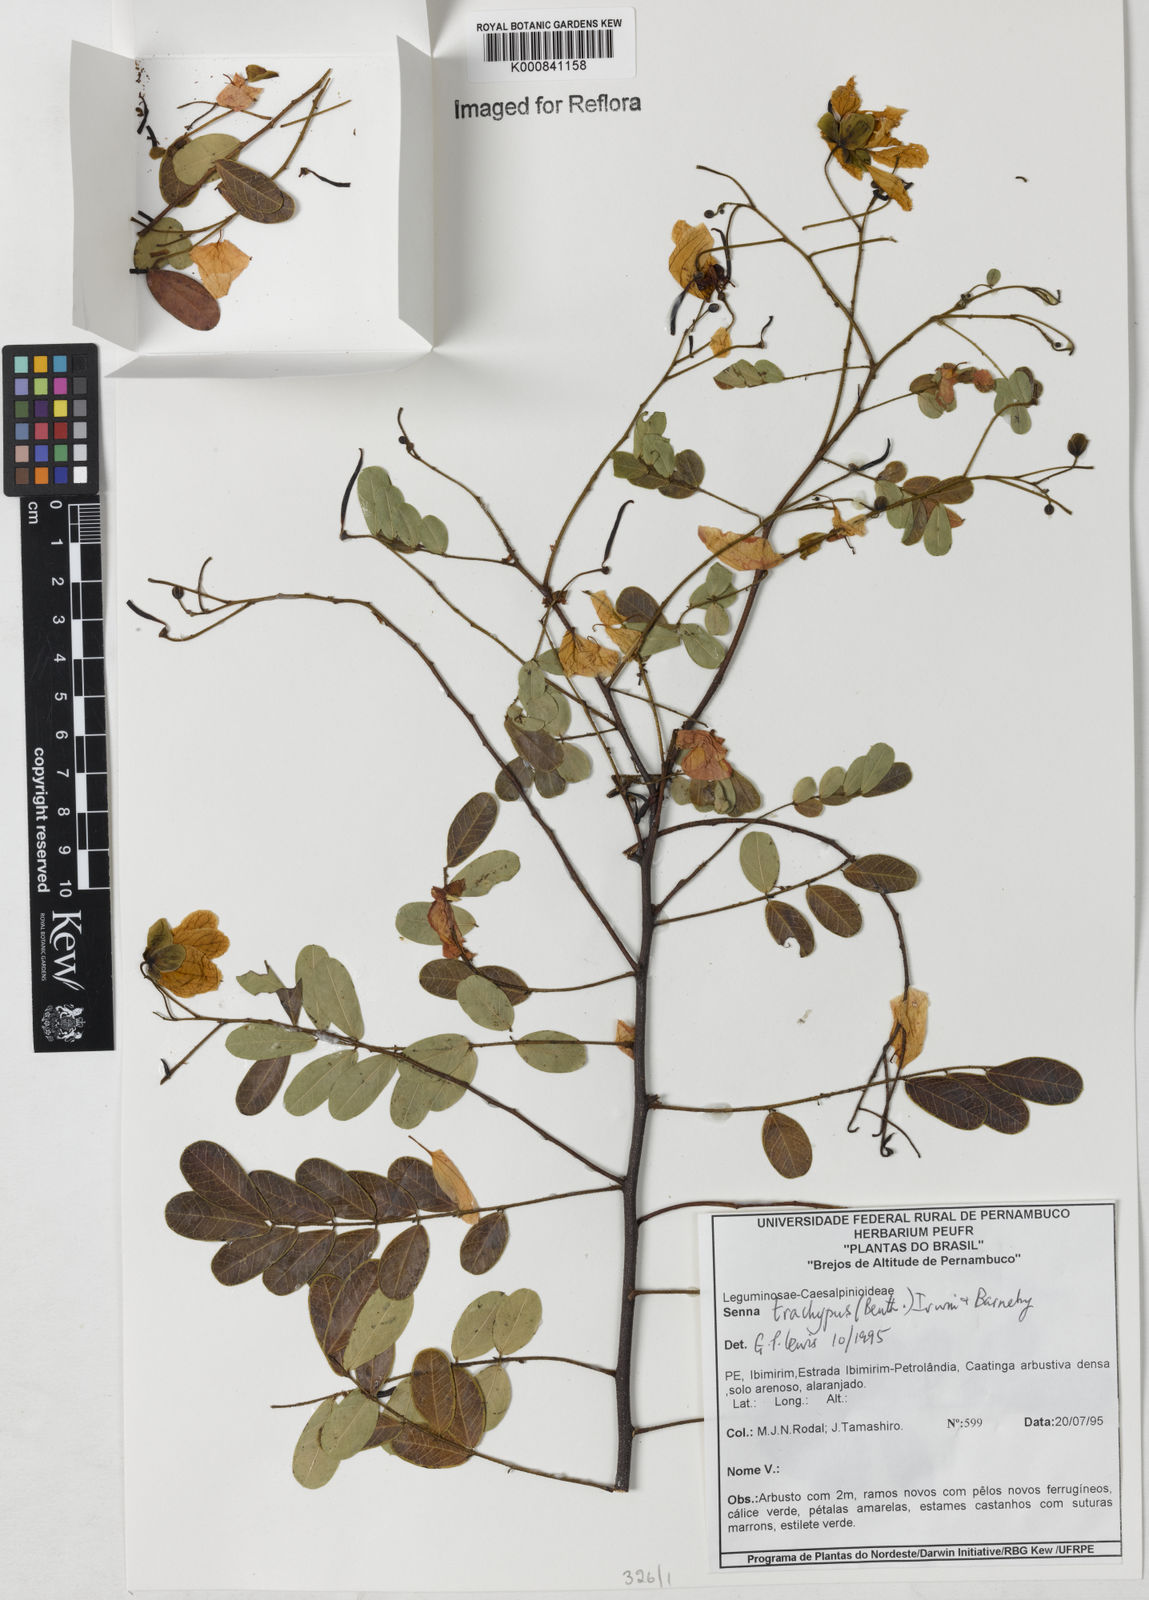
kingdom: Plantae
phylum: Tracheophyta
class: Magnoliopsida
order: Fabales
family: Fabaceae
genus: Senna
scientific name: Senna trachypus
